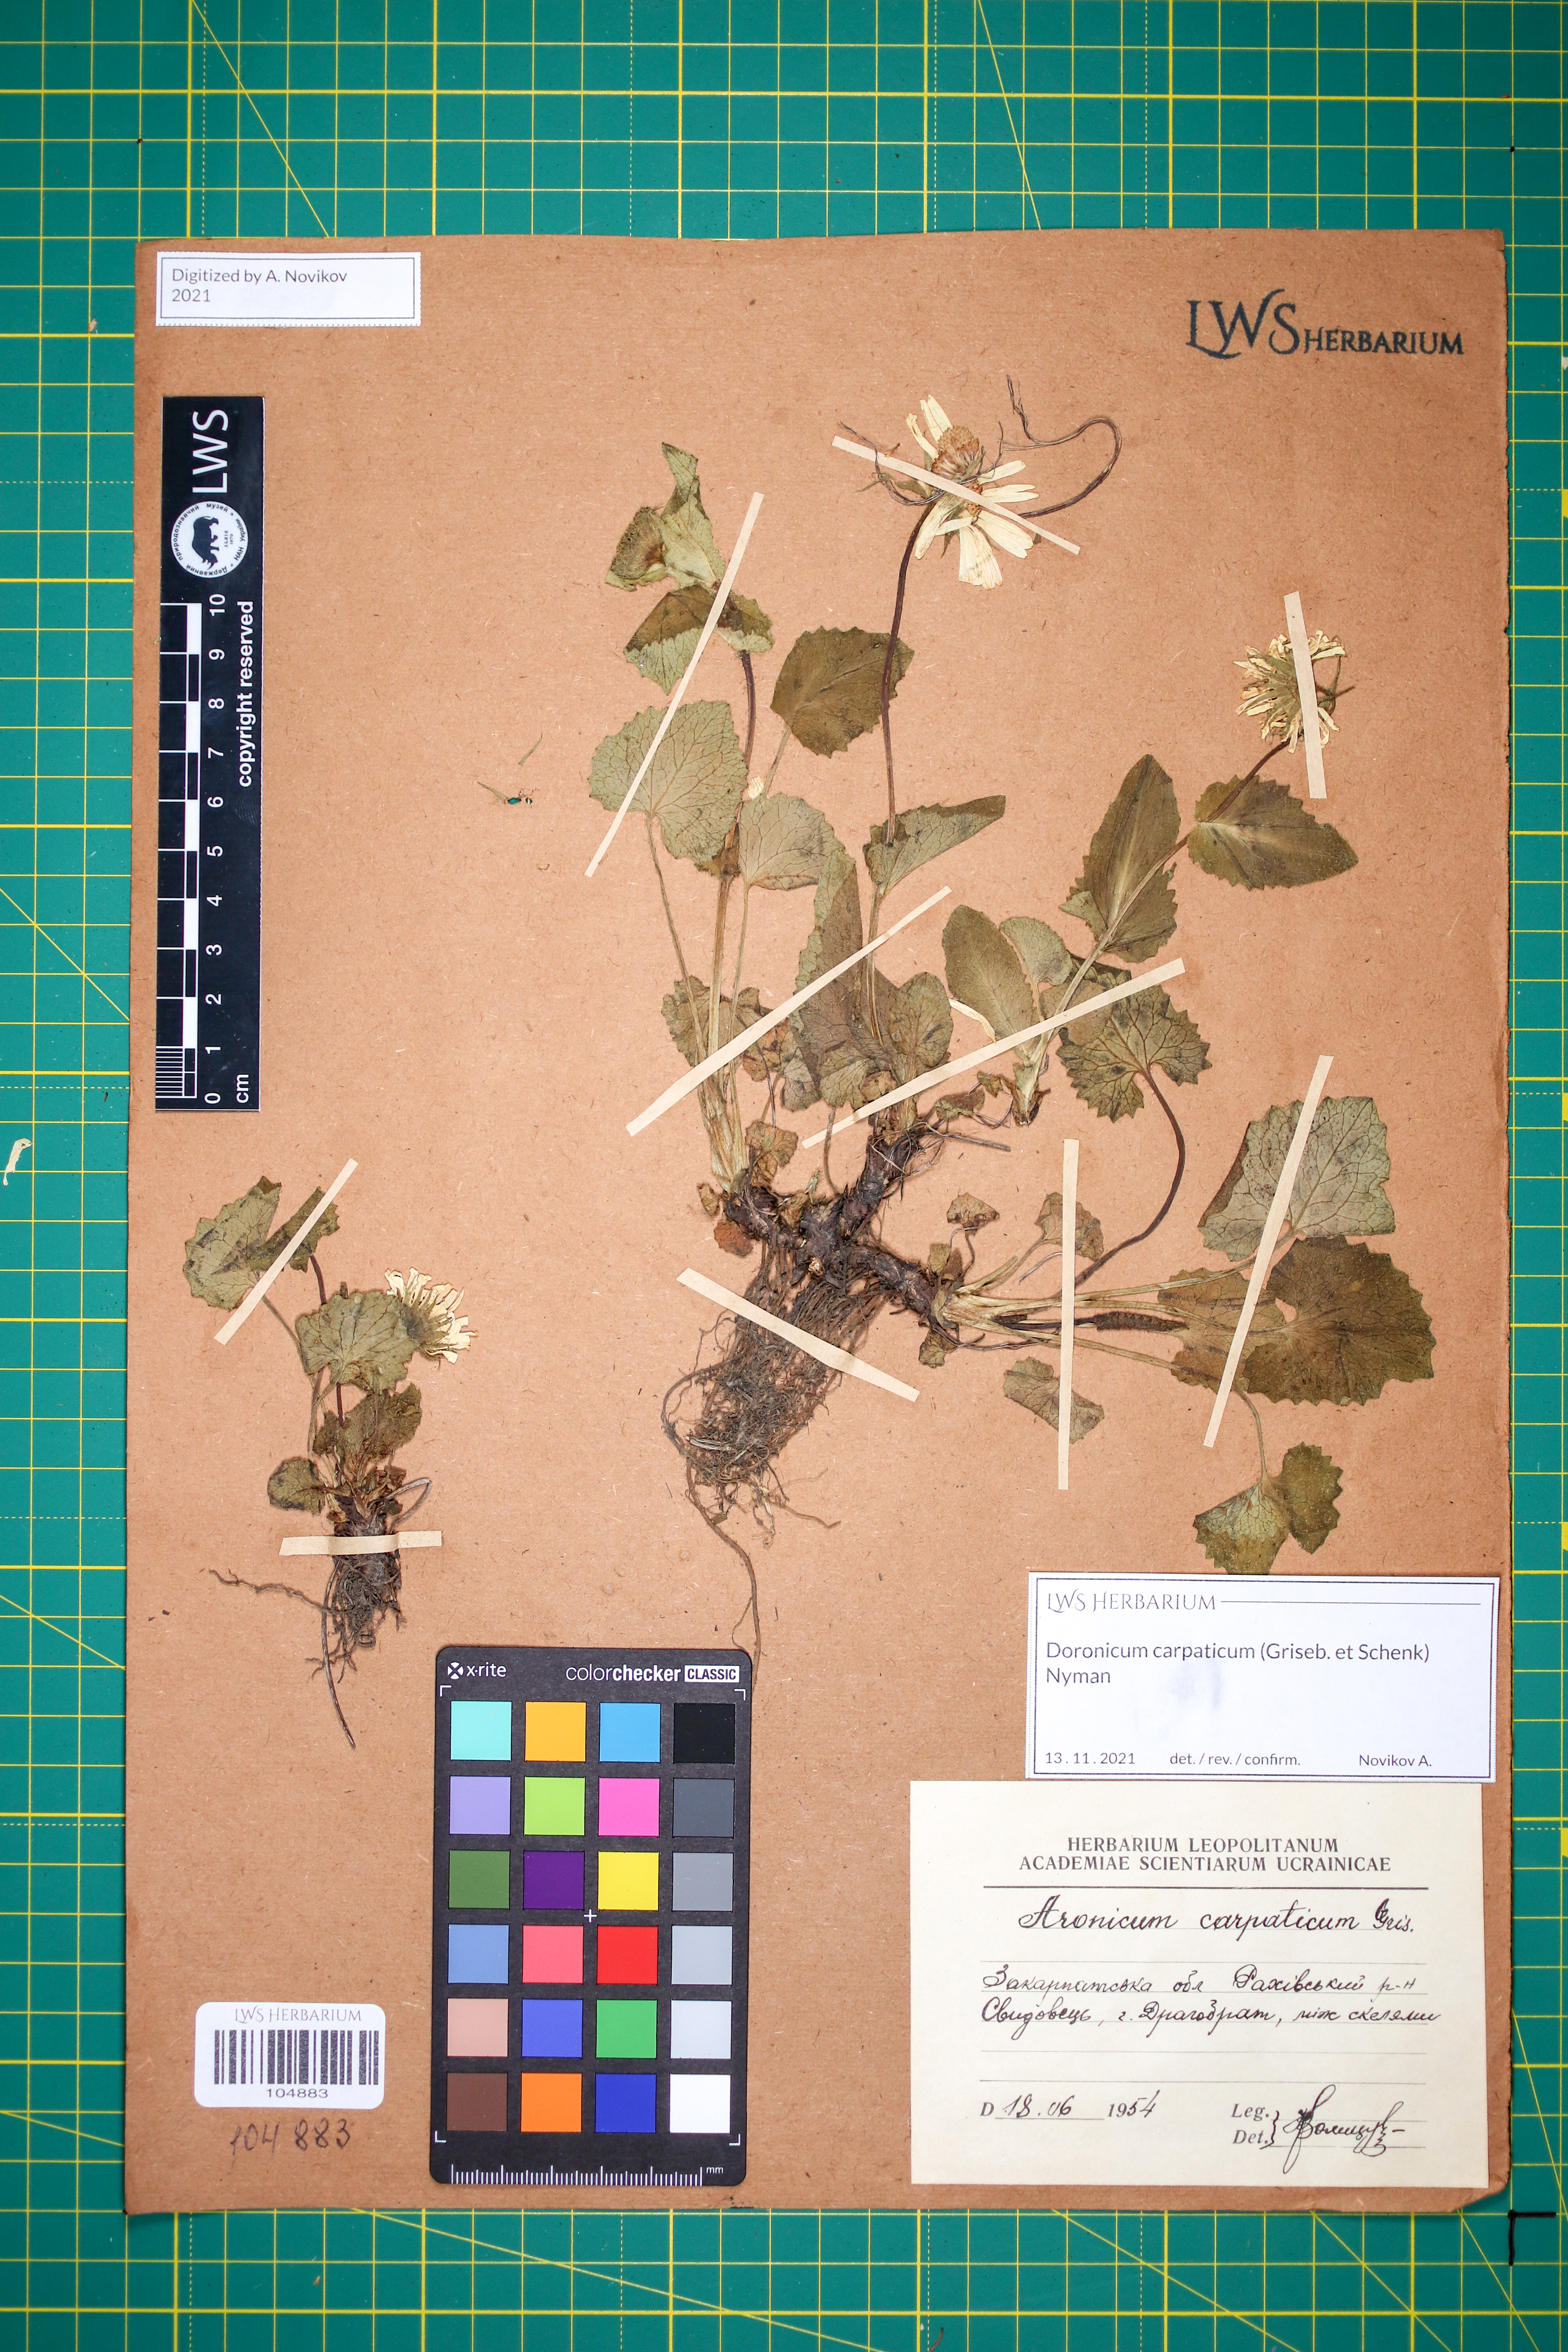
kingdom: Plantae
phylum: Tracheophyta
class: Magnoliopsida
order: Asterales
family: Asteraceae
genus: Doronicum
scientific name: Doronicum carpaticum
